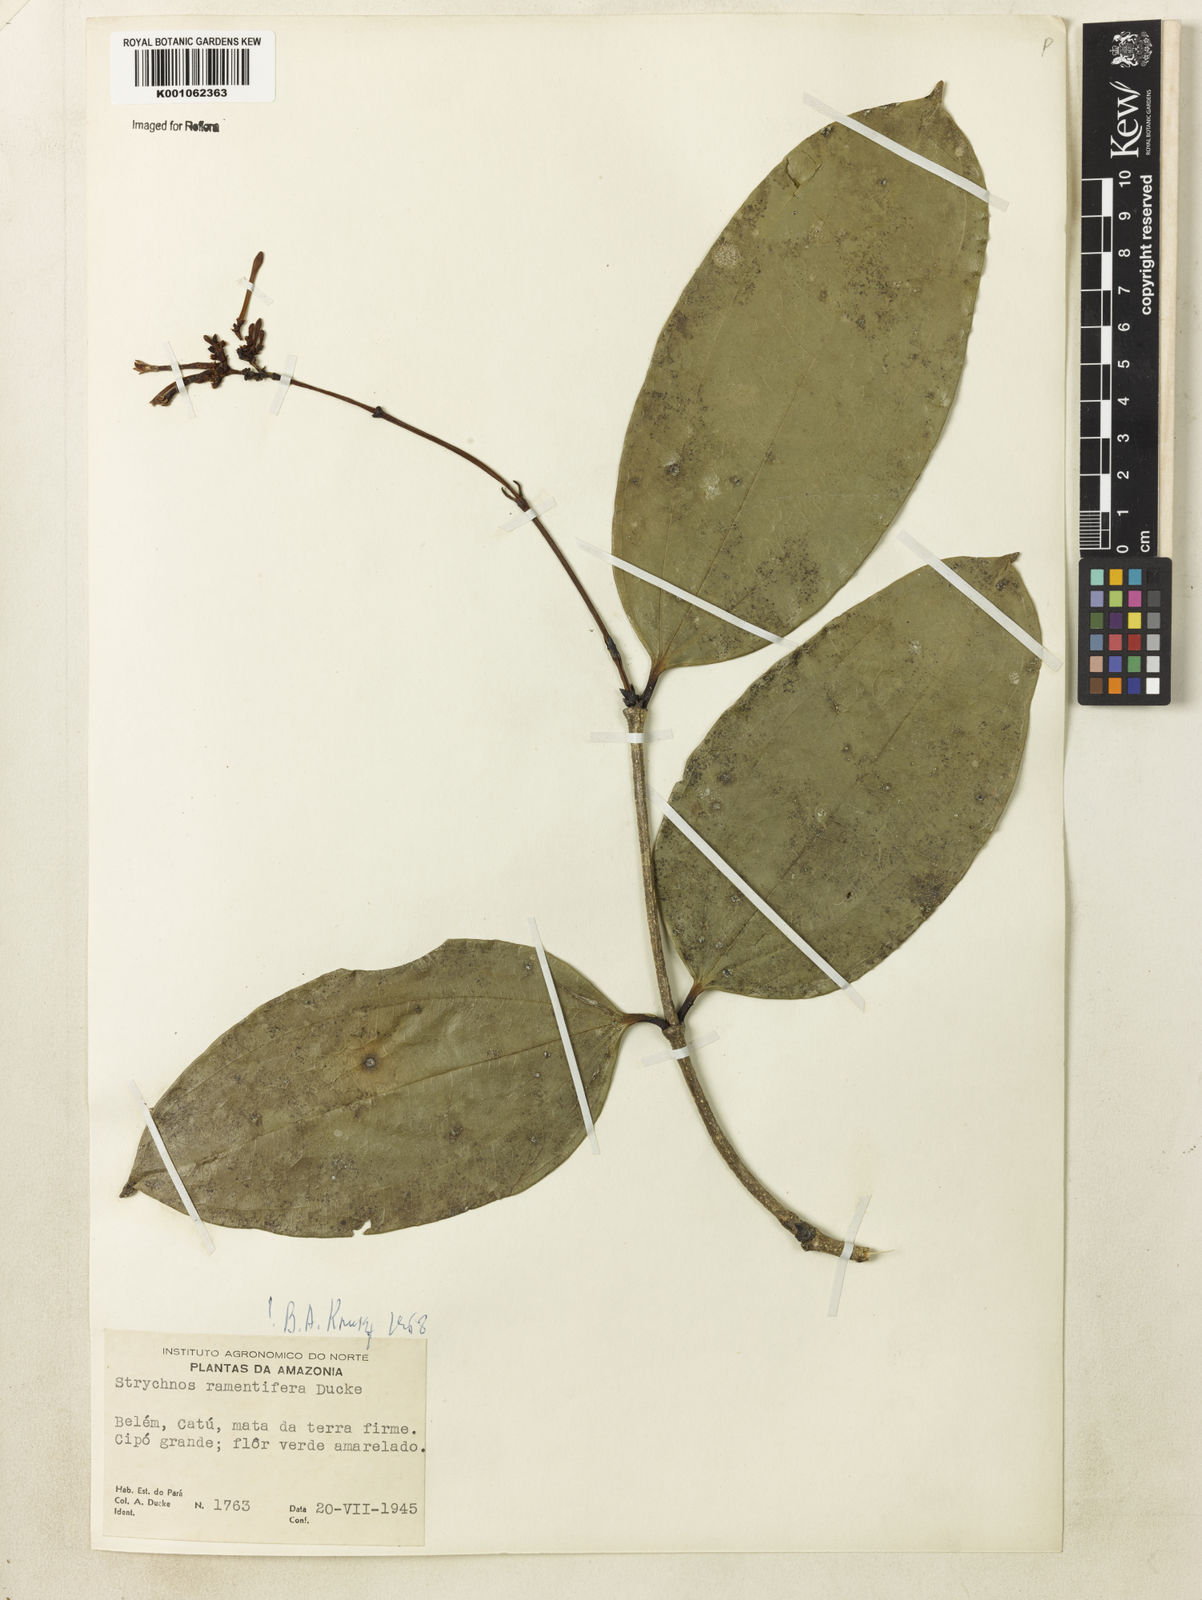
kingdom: Plantae
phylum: Tracheophyta
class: Magnoliopsida
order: Gentianales
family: Loganiaceae
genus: Strychnos
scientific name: Strychnos ramentifera
